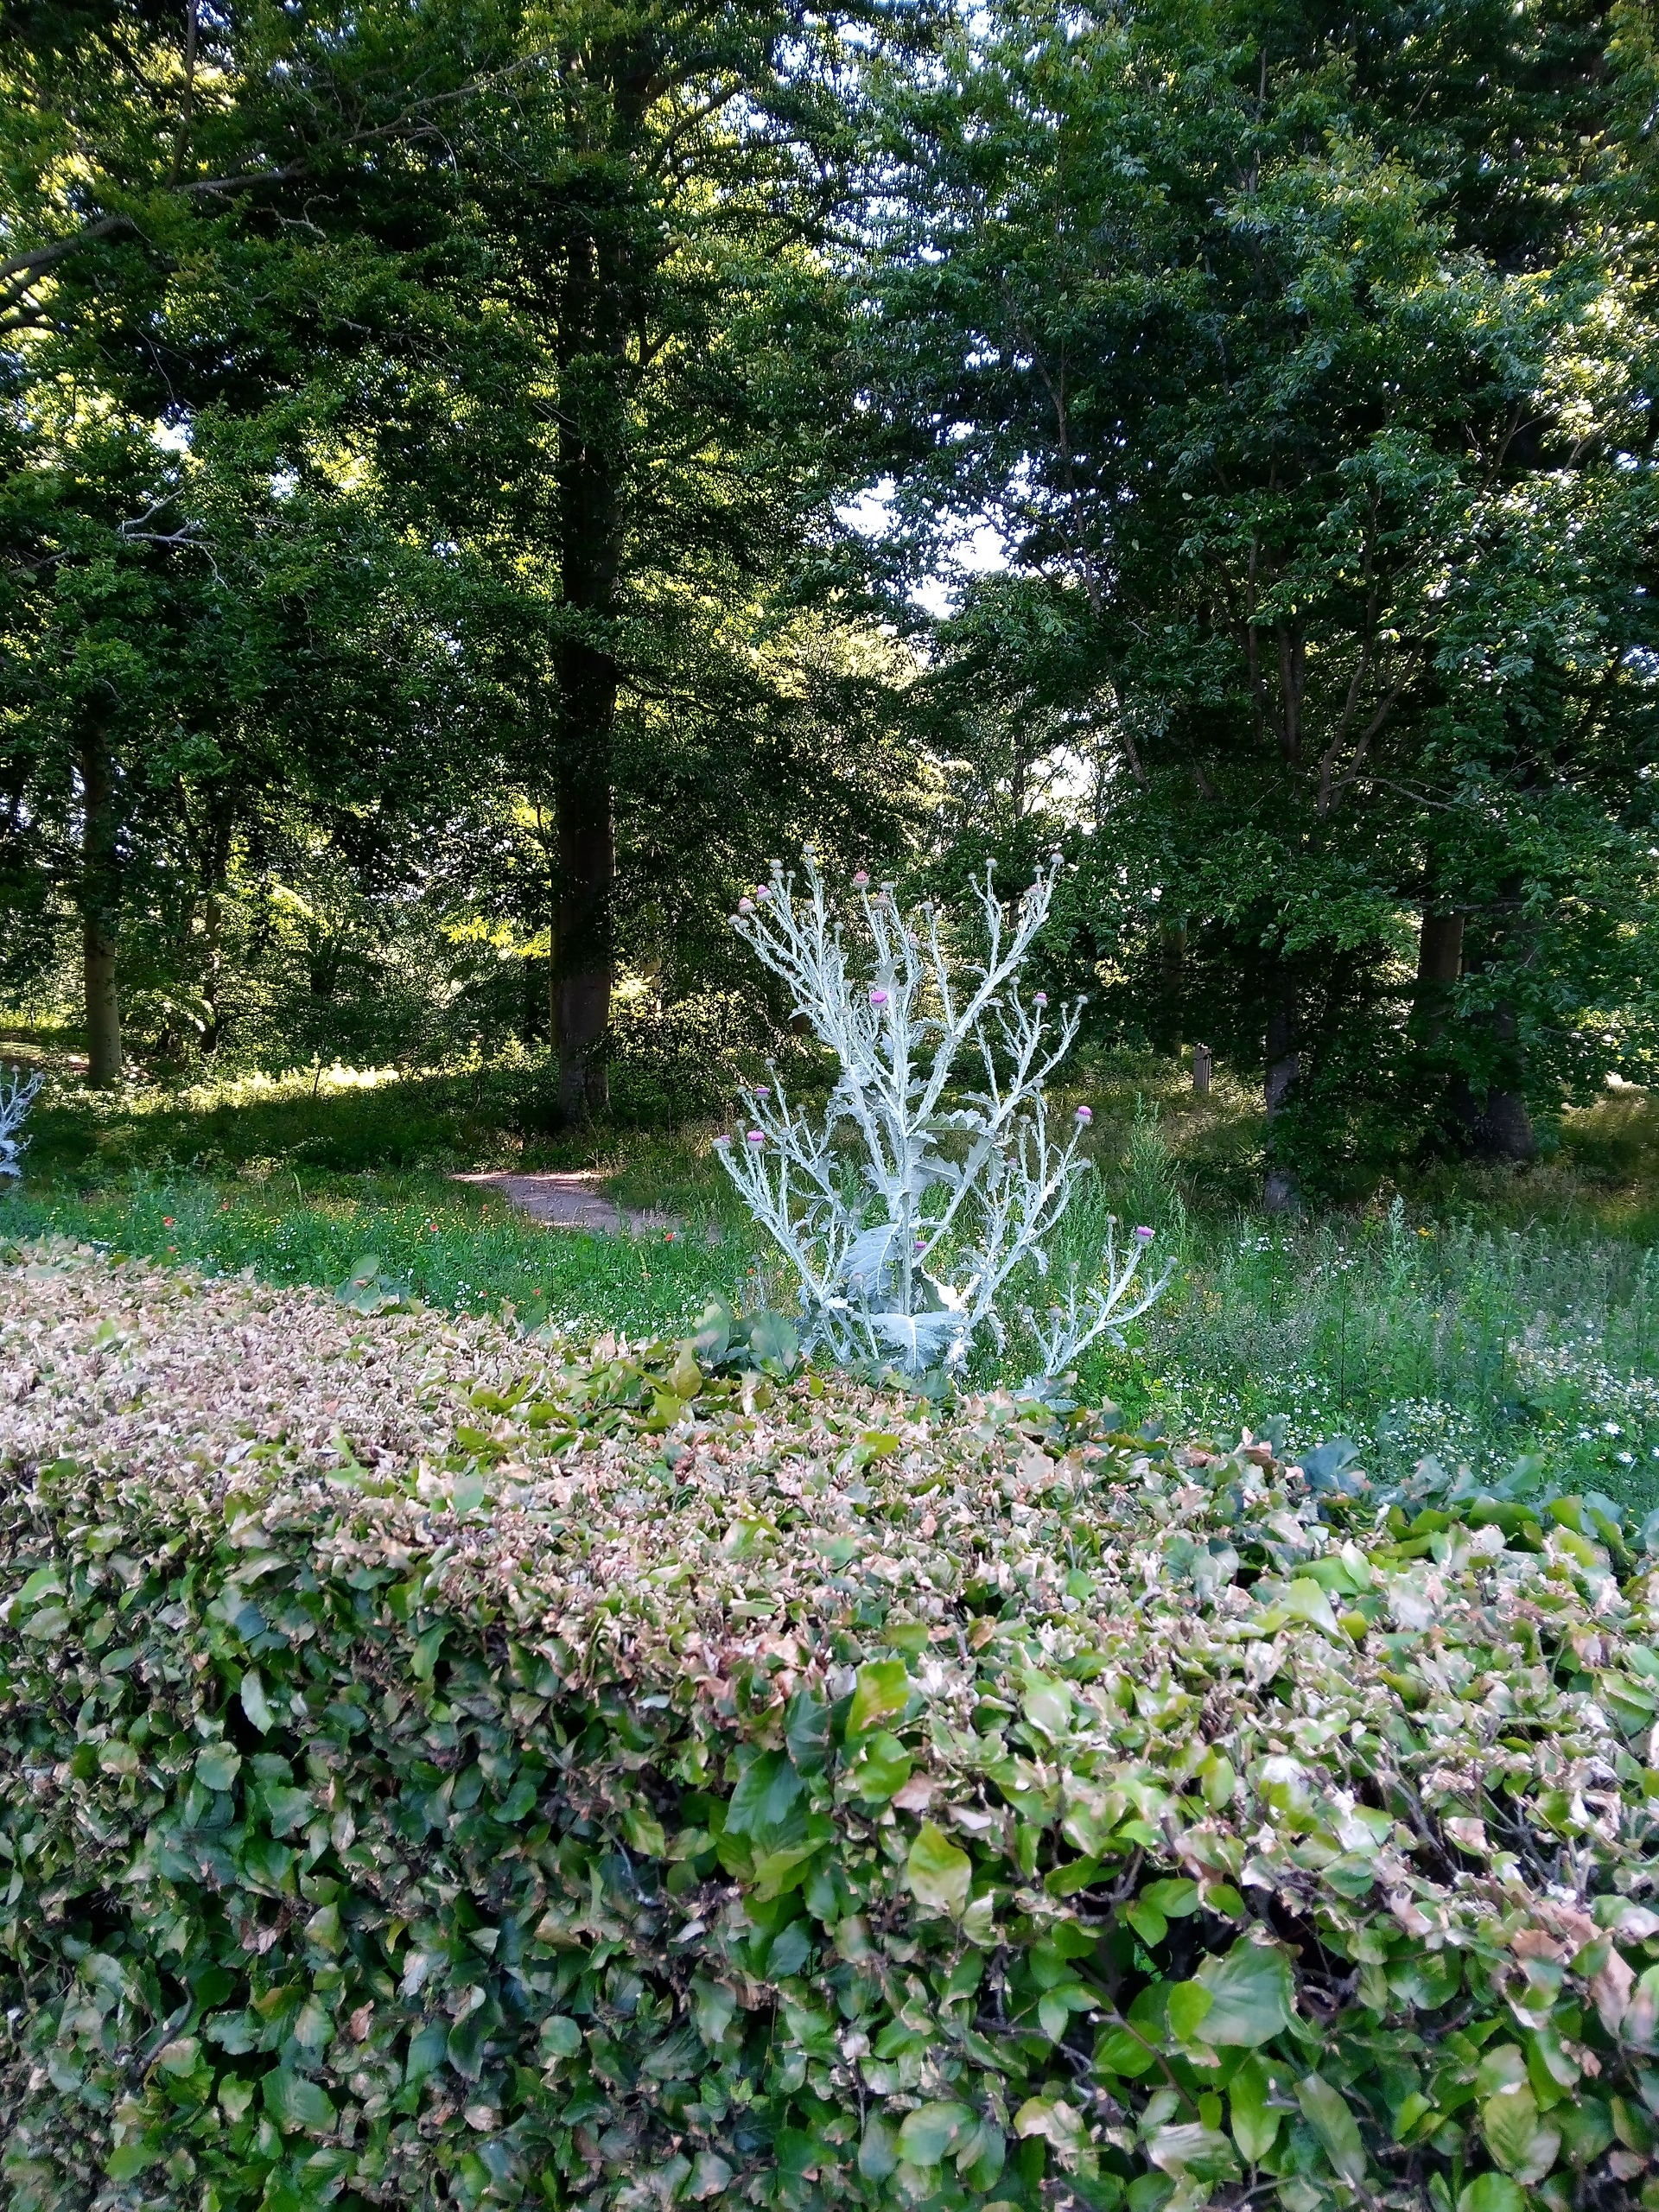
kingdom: Plantae
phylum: Tracheophyta
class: Magnoliopsida
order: Asterales
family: Asteraceae
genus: Onopordum
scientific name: Onopordum acanthium
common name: Æselfoder
